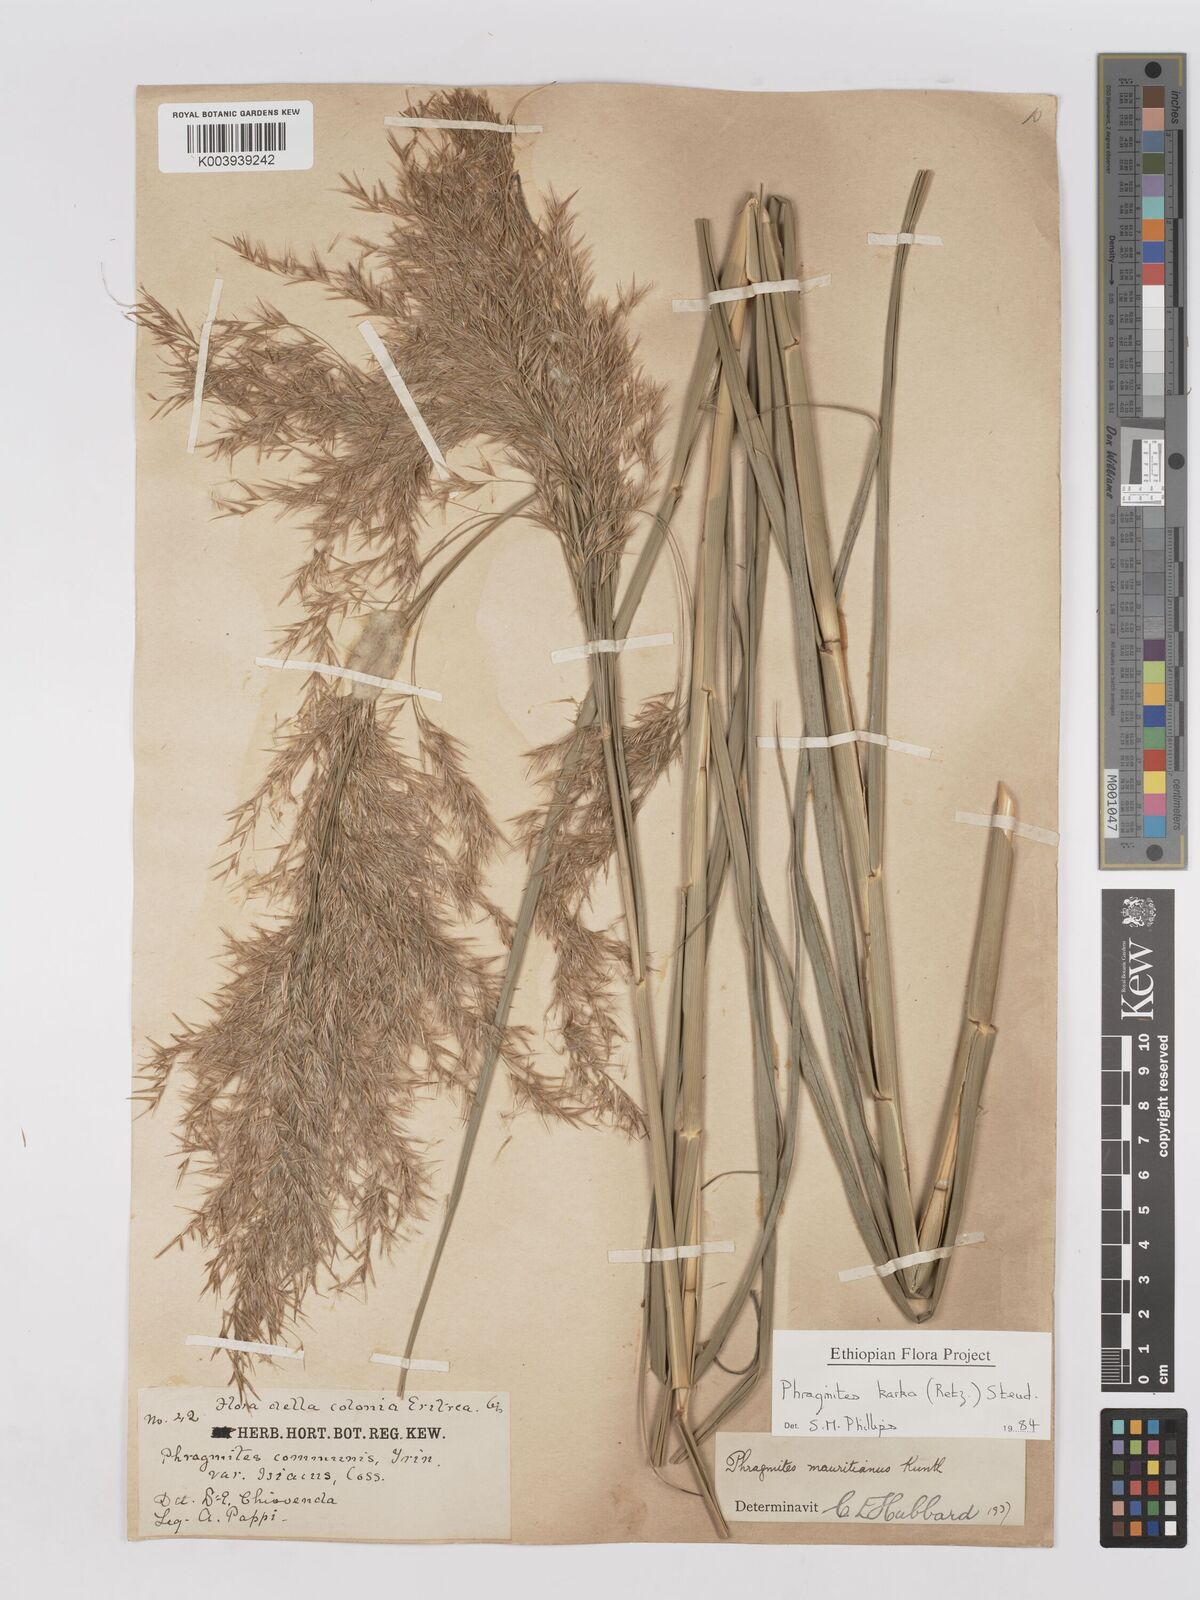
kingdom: Plantae
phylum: Tracheophyta
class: Liliopsida
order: Poales
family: Poaceae
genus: Phragmites
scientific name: Phragmites karka
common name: Tropical reed
